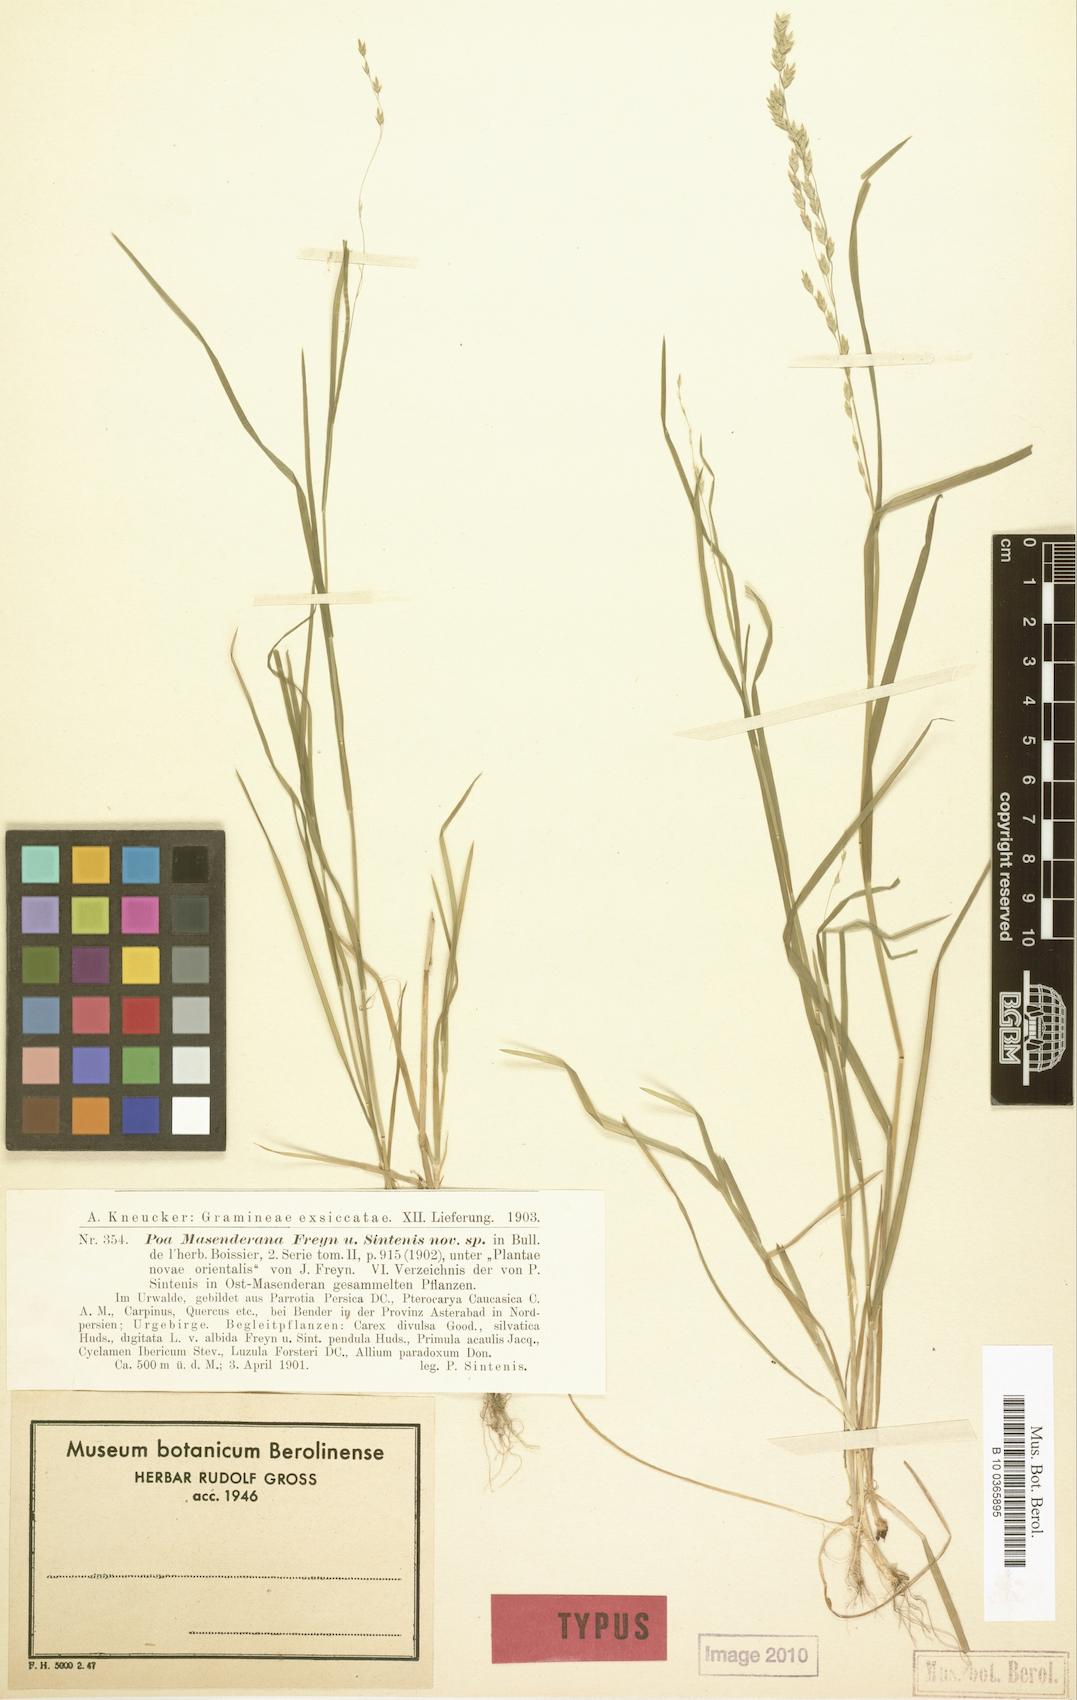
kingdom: Plantae
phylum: Tracheophyta
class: Liliopsida
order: Poales
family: Poaceae
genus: Poa
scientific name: Poa masenderana
